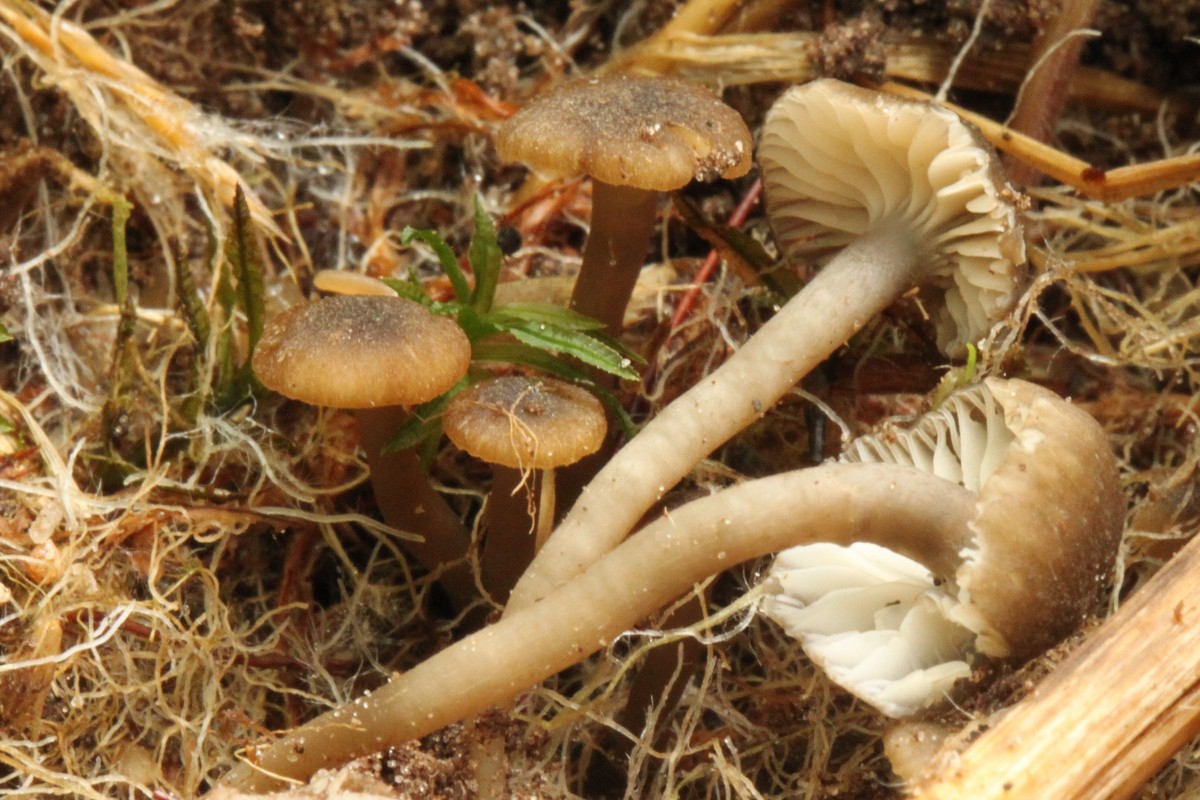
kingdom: Fungi
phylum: Basidiomycota
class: Agaricomycetes
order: Agaricales
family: Clavariaceae
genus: Camarophyllopsis
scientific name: Camarophyllopsis atrovelutina
